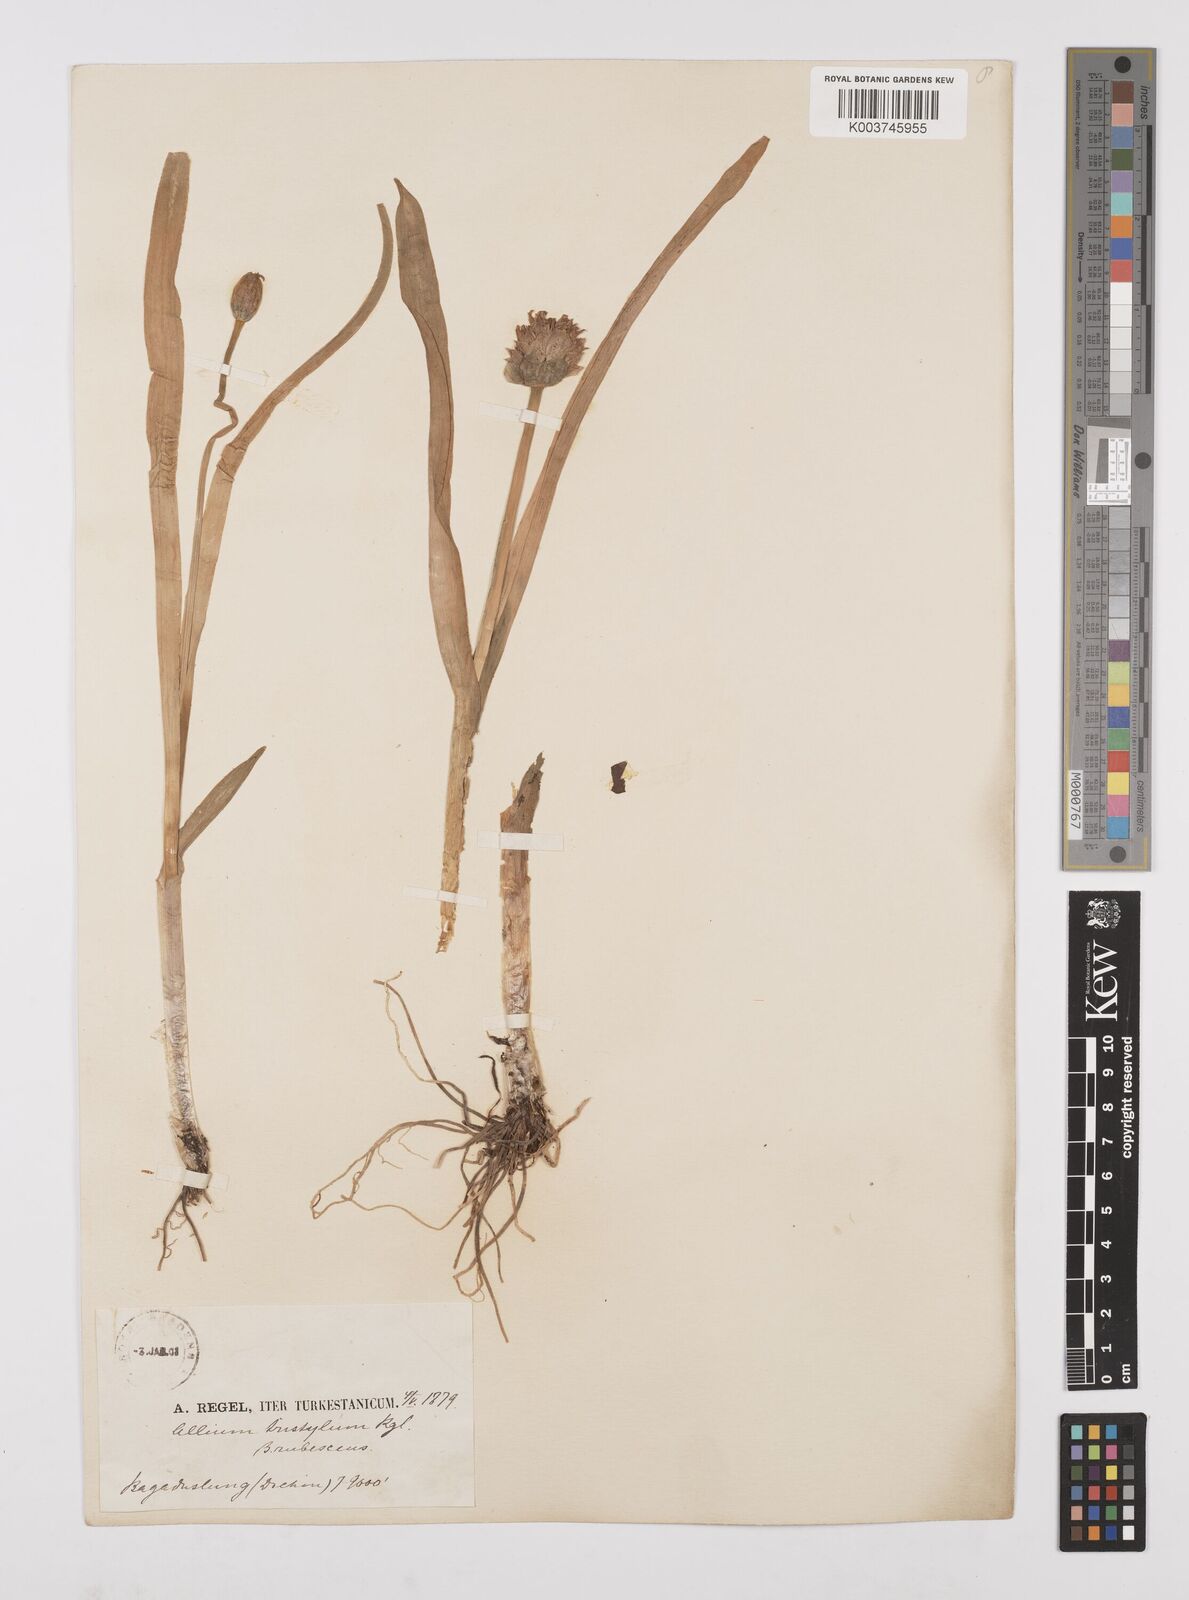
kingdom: Plantae
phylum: Tracheophyta
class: Liliopsida
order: Asparagales
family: Amaryllidaceae
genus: Allium
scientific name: Allium semenovii
